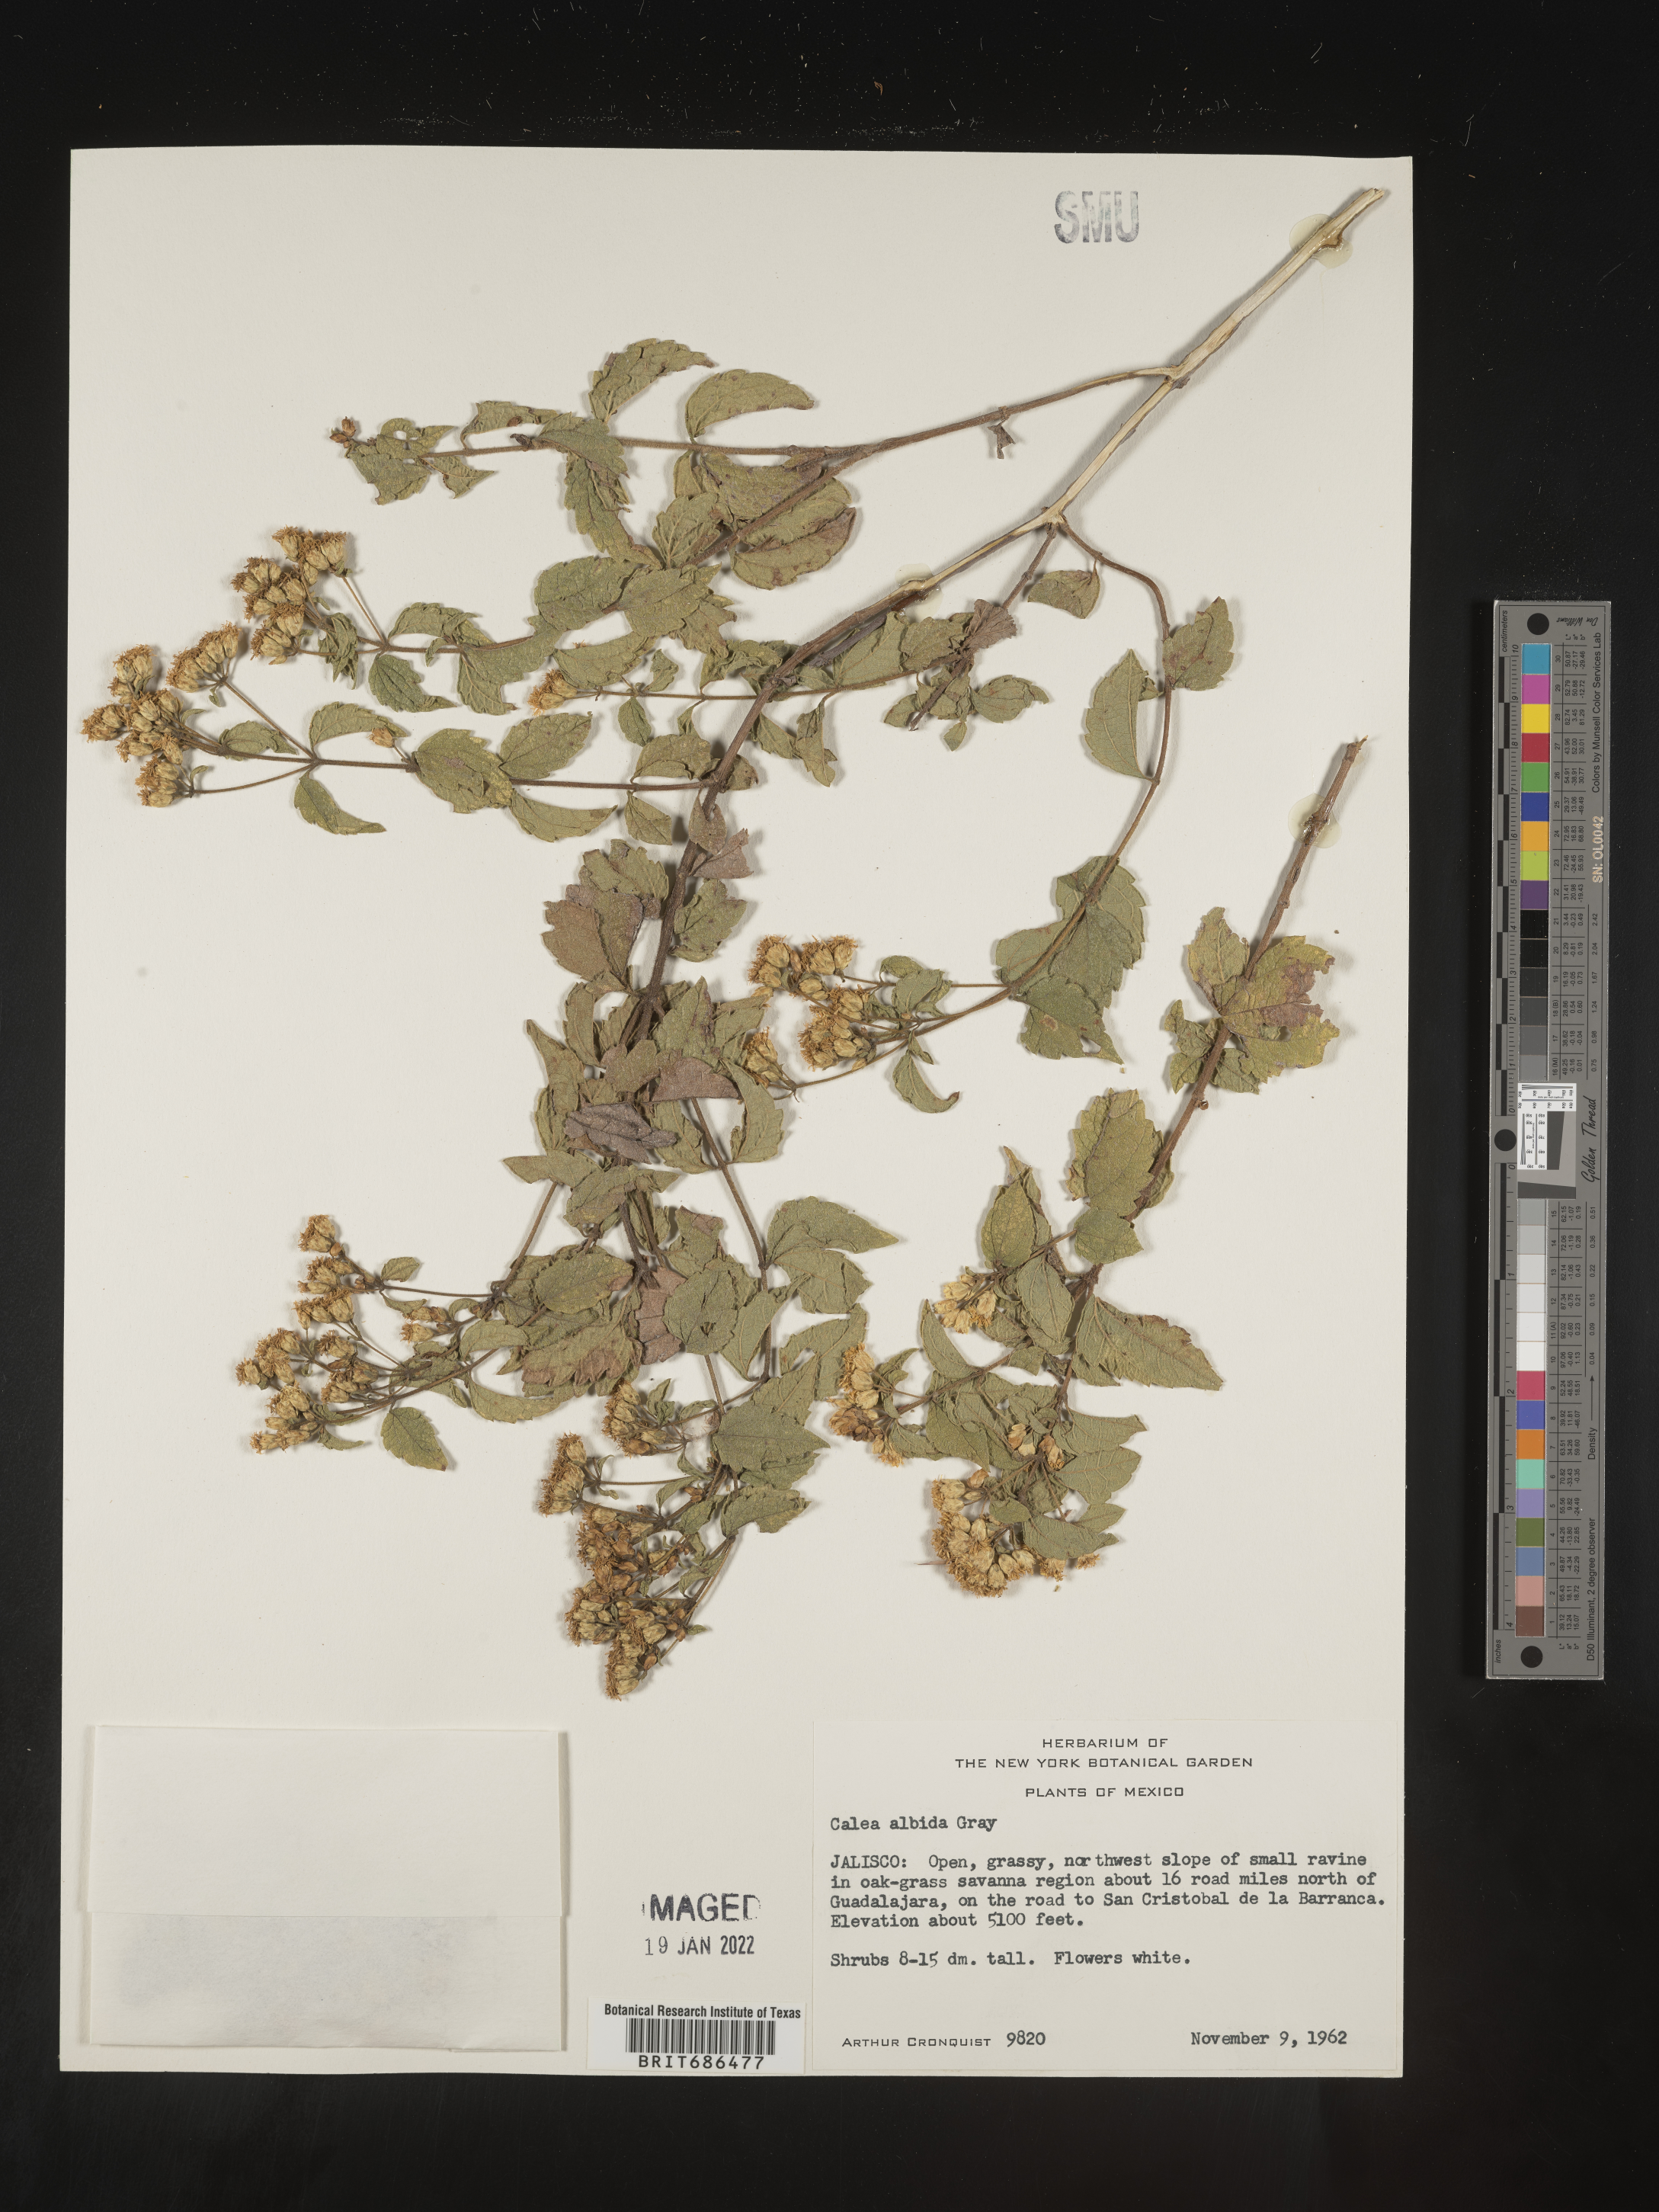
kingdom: Plantae
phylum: Tracheophyta
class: Magnoliopsida
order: Asterales
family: Asteraceae
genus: Calea
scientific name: Calea
